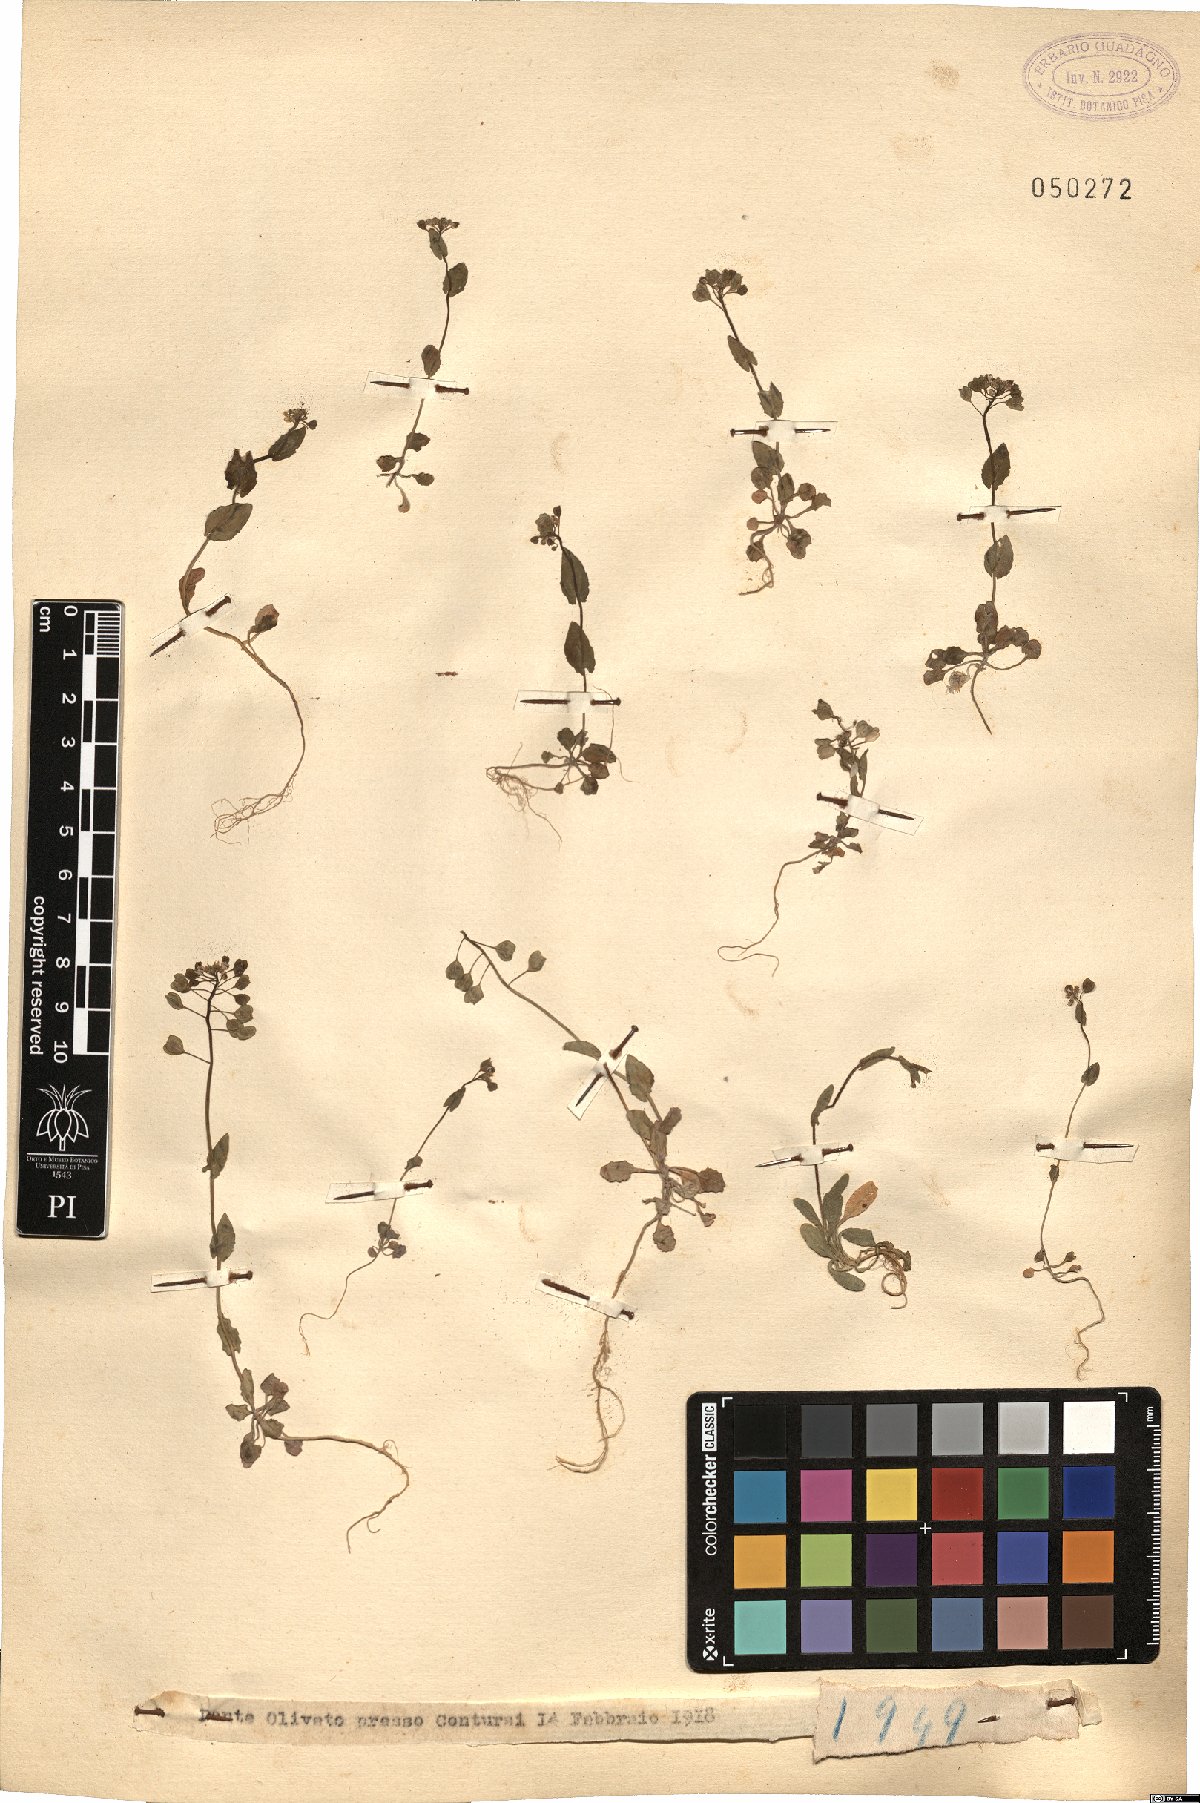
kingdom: Plantae
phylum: Tracheophyta
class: Magnoliopsida
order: Brassicales
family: Brassicaceae
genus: Thlaspi
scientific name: Thlaspi
